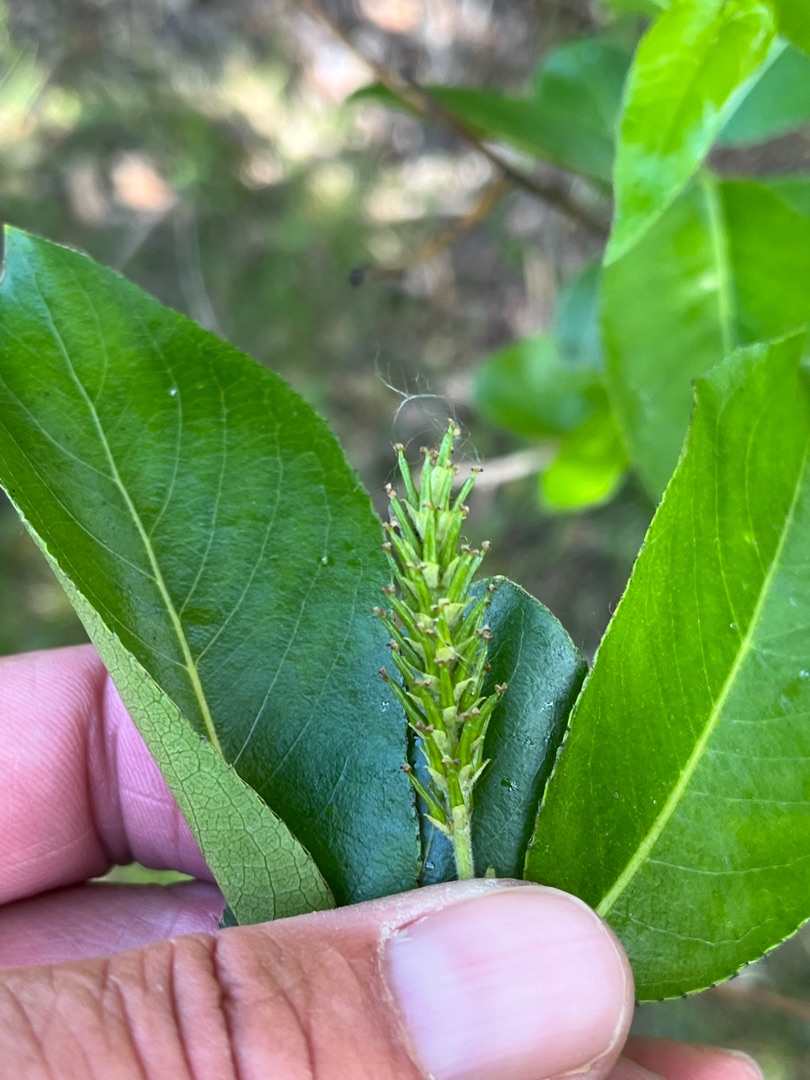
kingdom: Plantae
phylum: Tracheophyta
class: Magnoliopsida
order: Malpighiales
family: Salicaceae
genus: Salix
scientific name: Salix pentandra
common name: Femhannet pil
